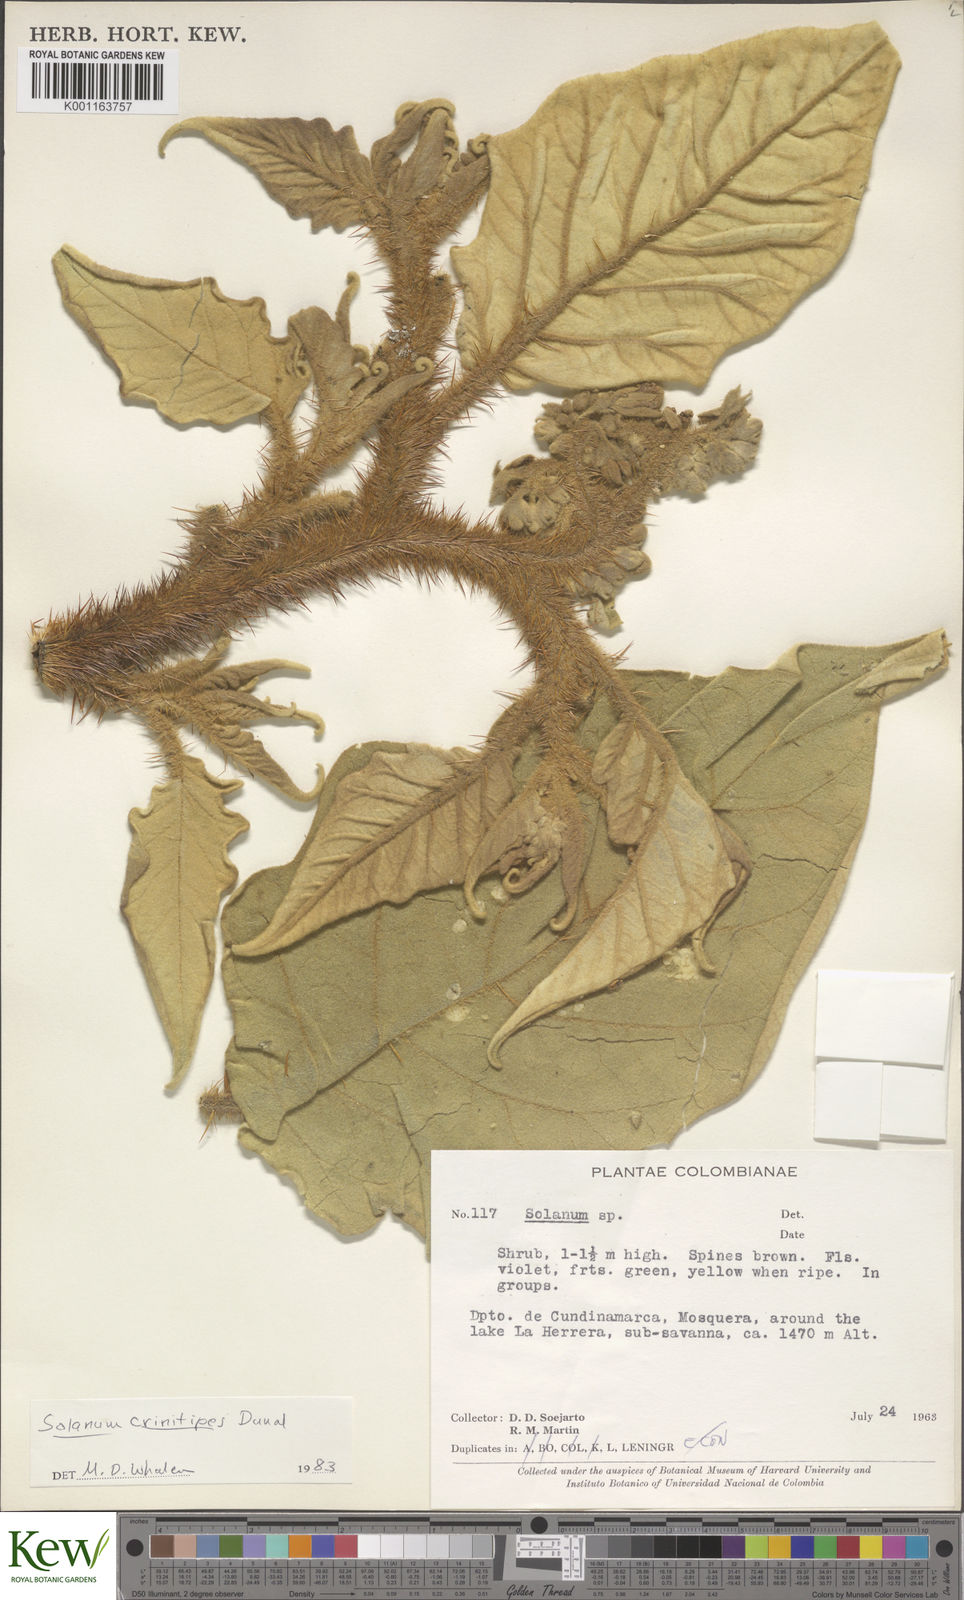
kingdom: Plantae
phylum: Tracheophyta
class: Magnoliopsida
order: Solanales
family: Solanaceae
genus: Solanum
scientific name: Solanum crinitipes
